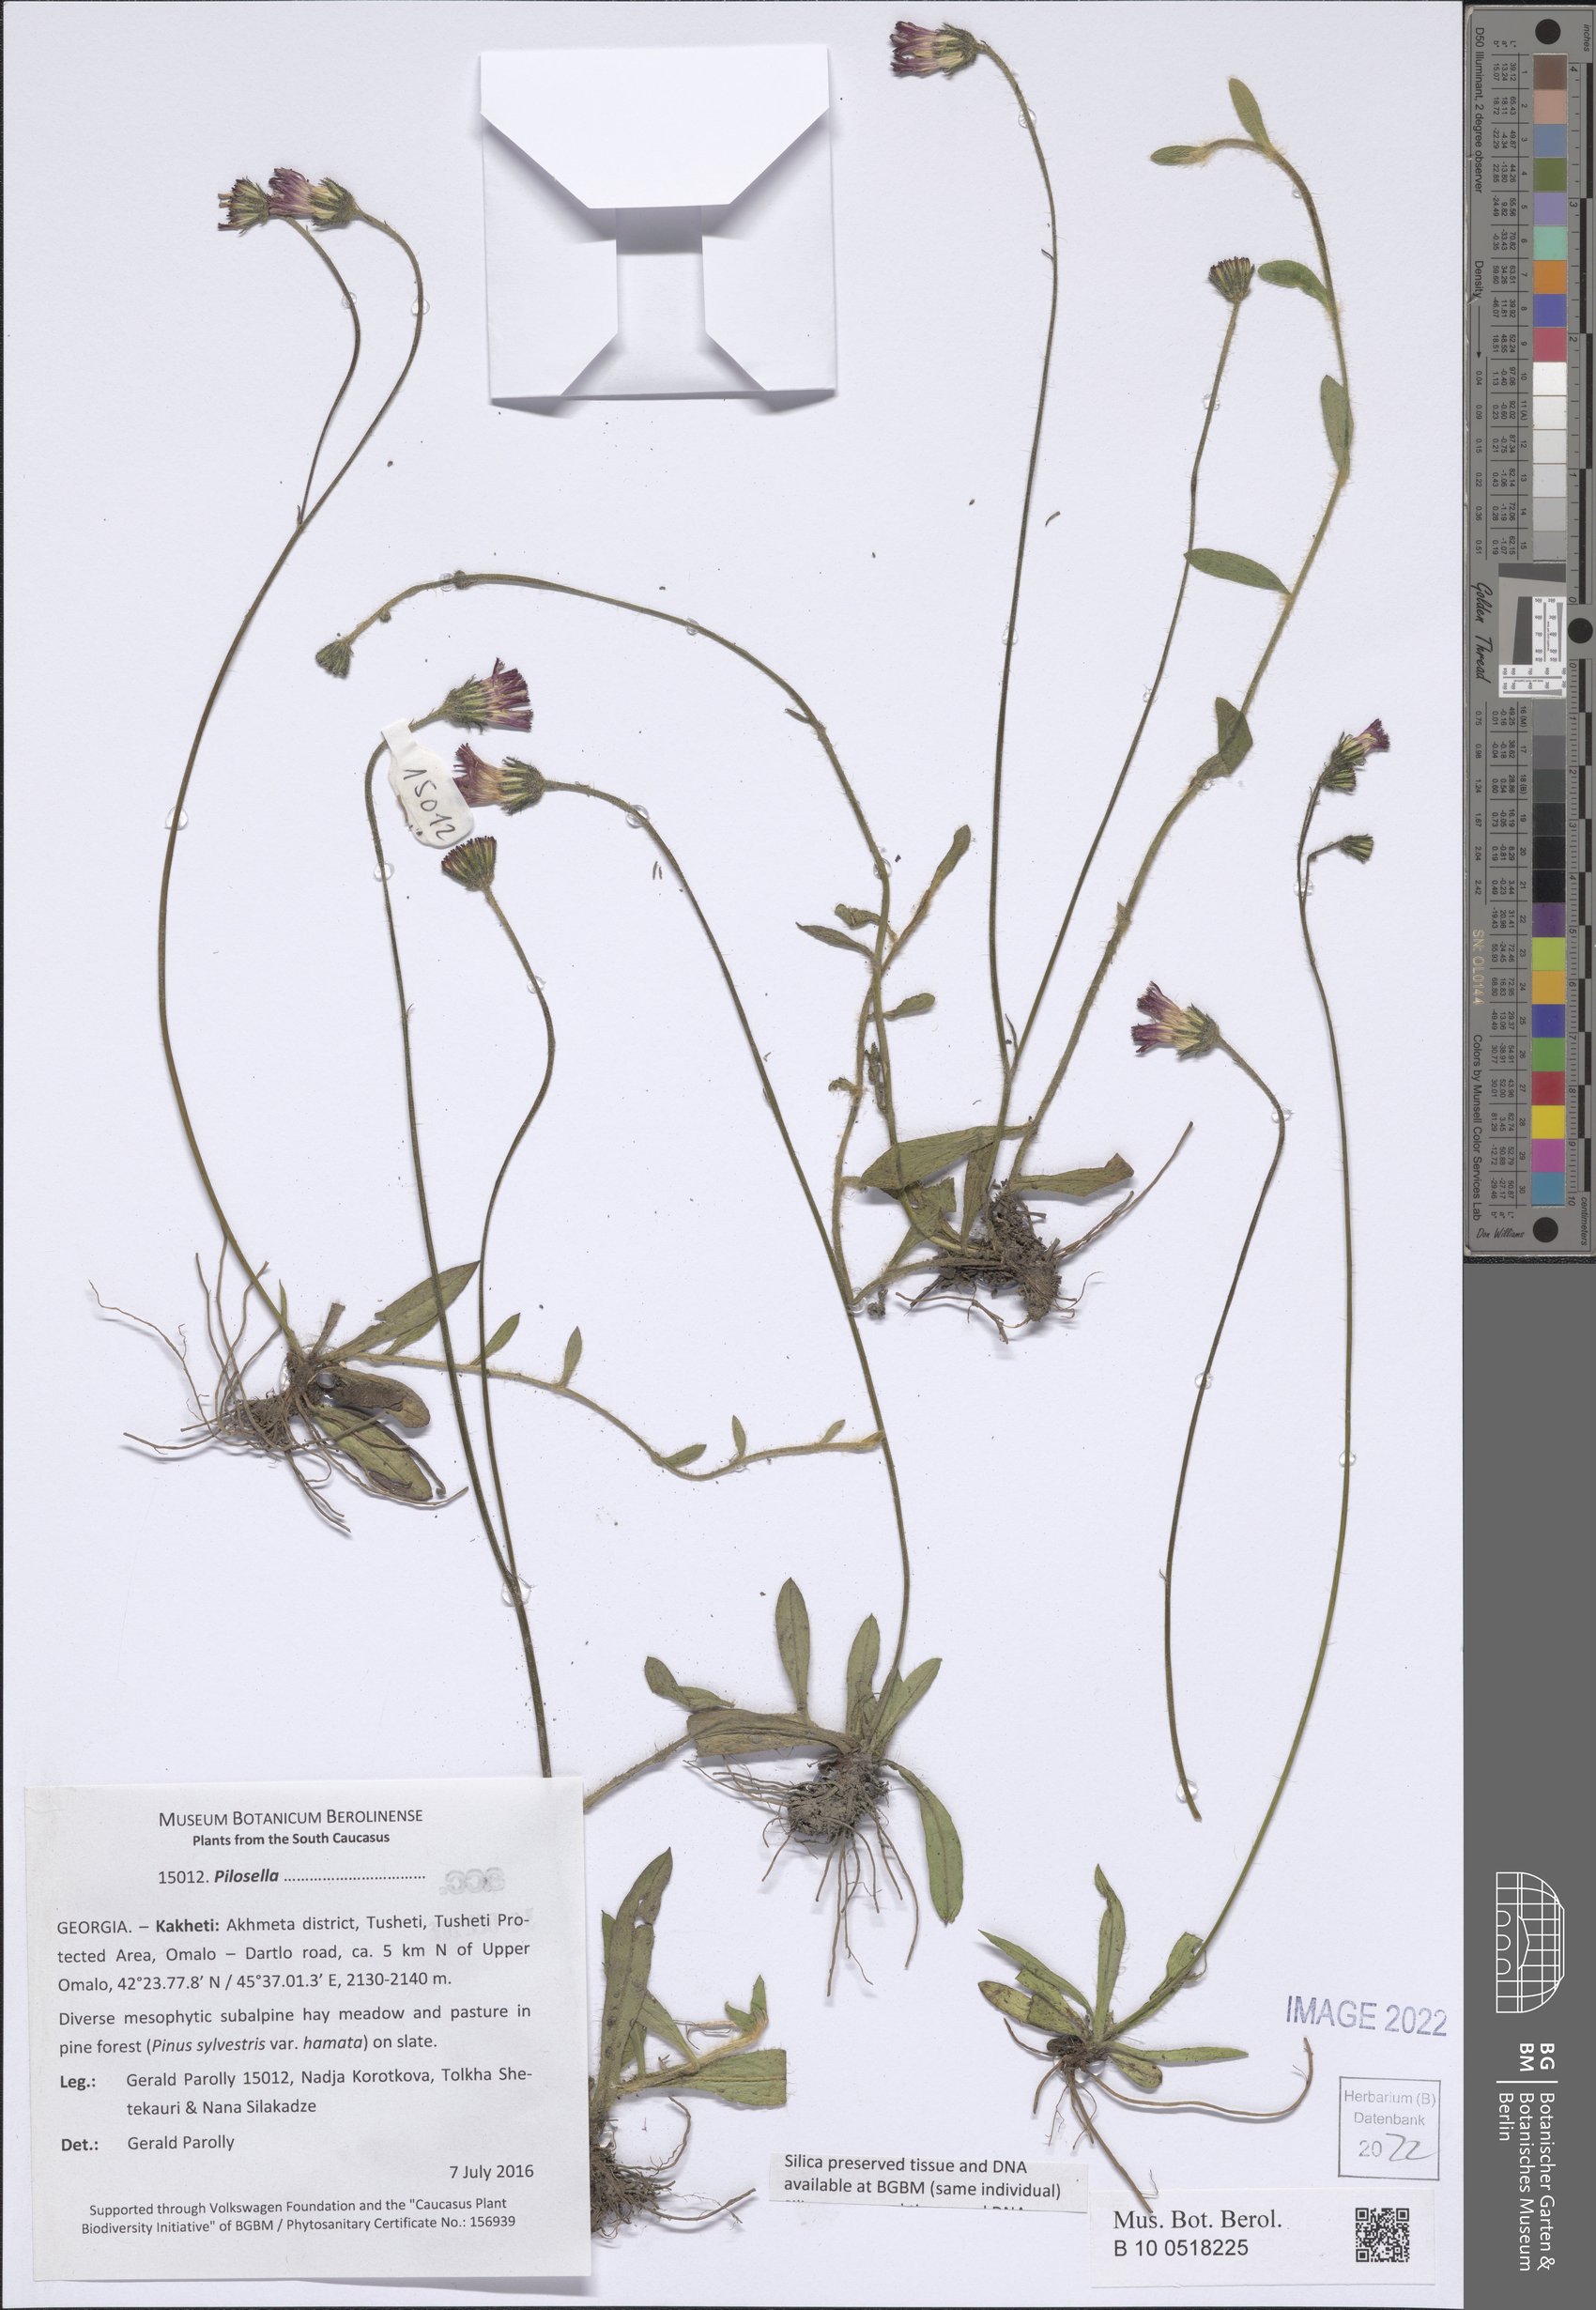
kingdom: Plantae
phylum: Tracheophyta
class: Magnoliopsida
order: Asterales
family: Asteraceae
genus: Pilosella
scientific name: Pilosella
